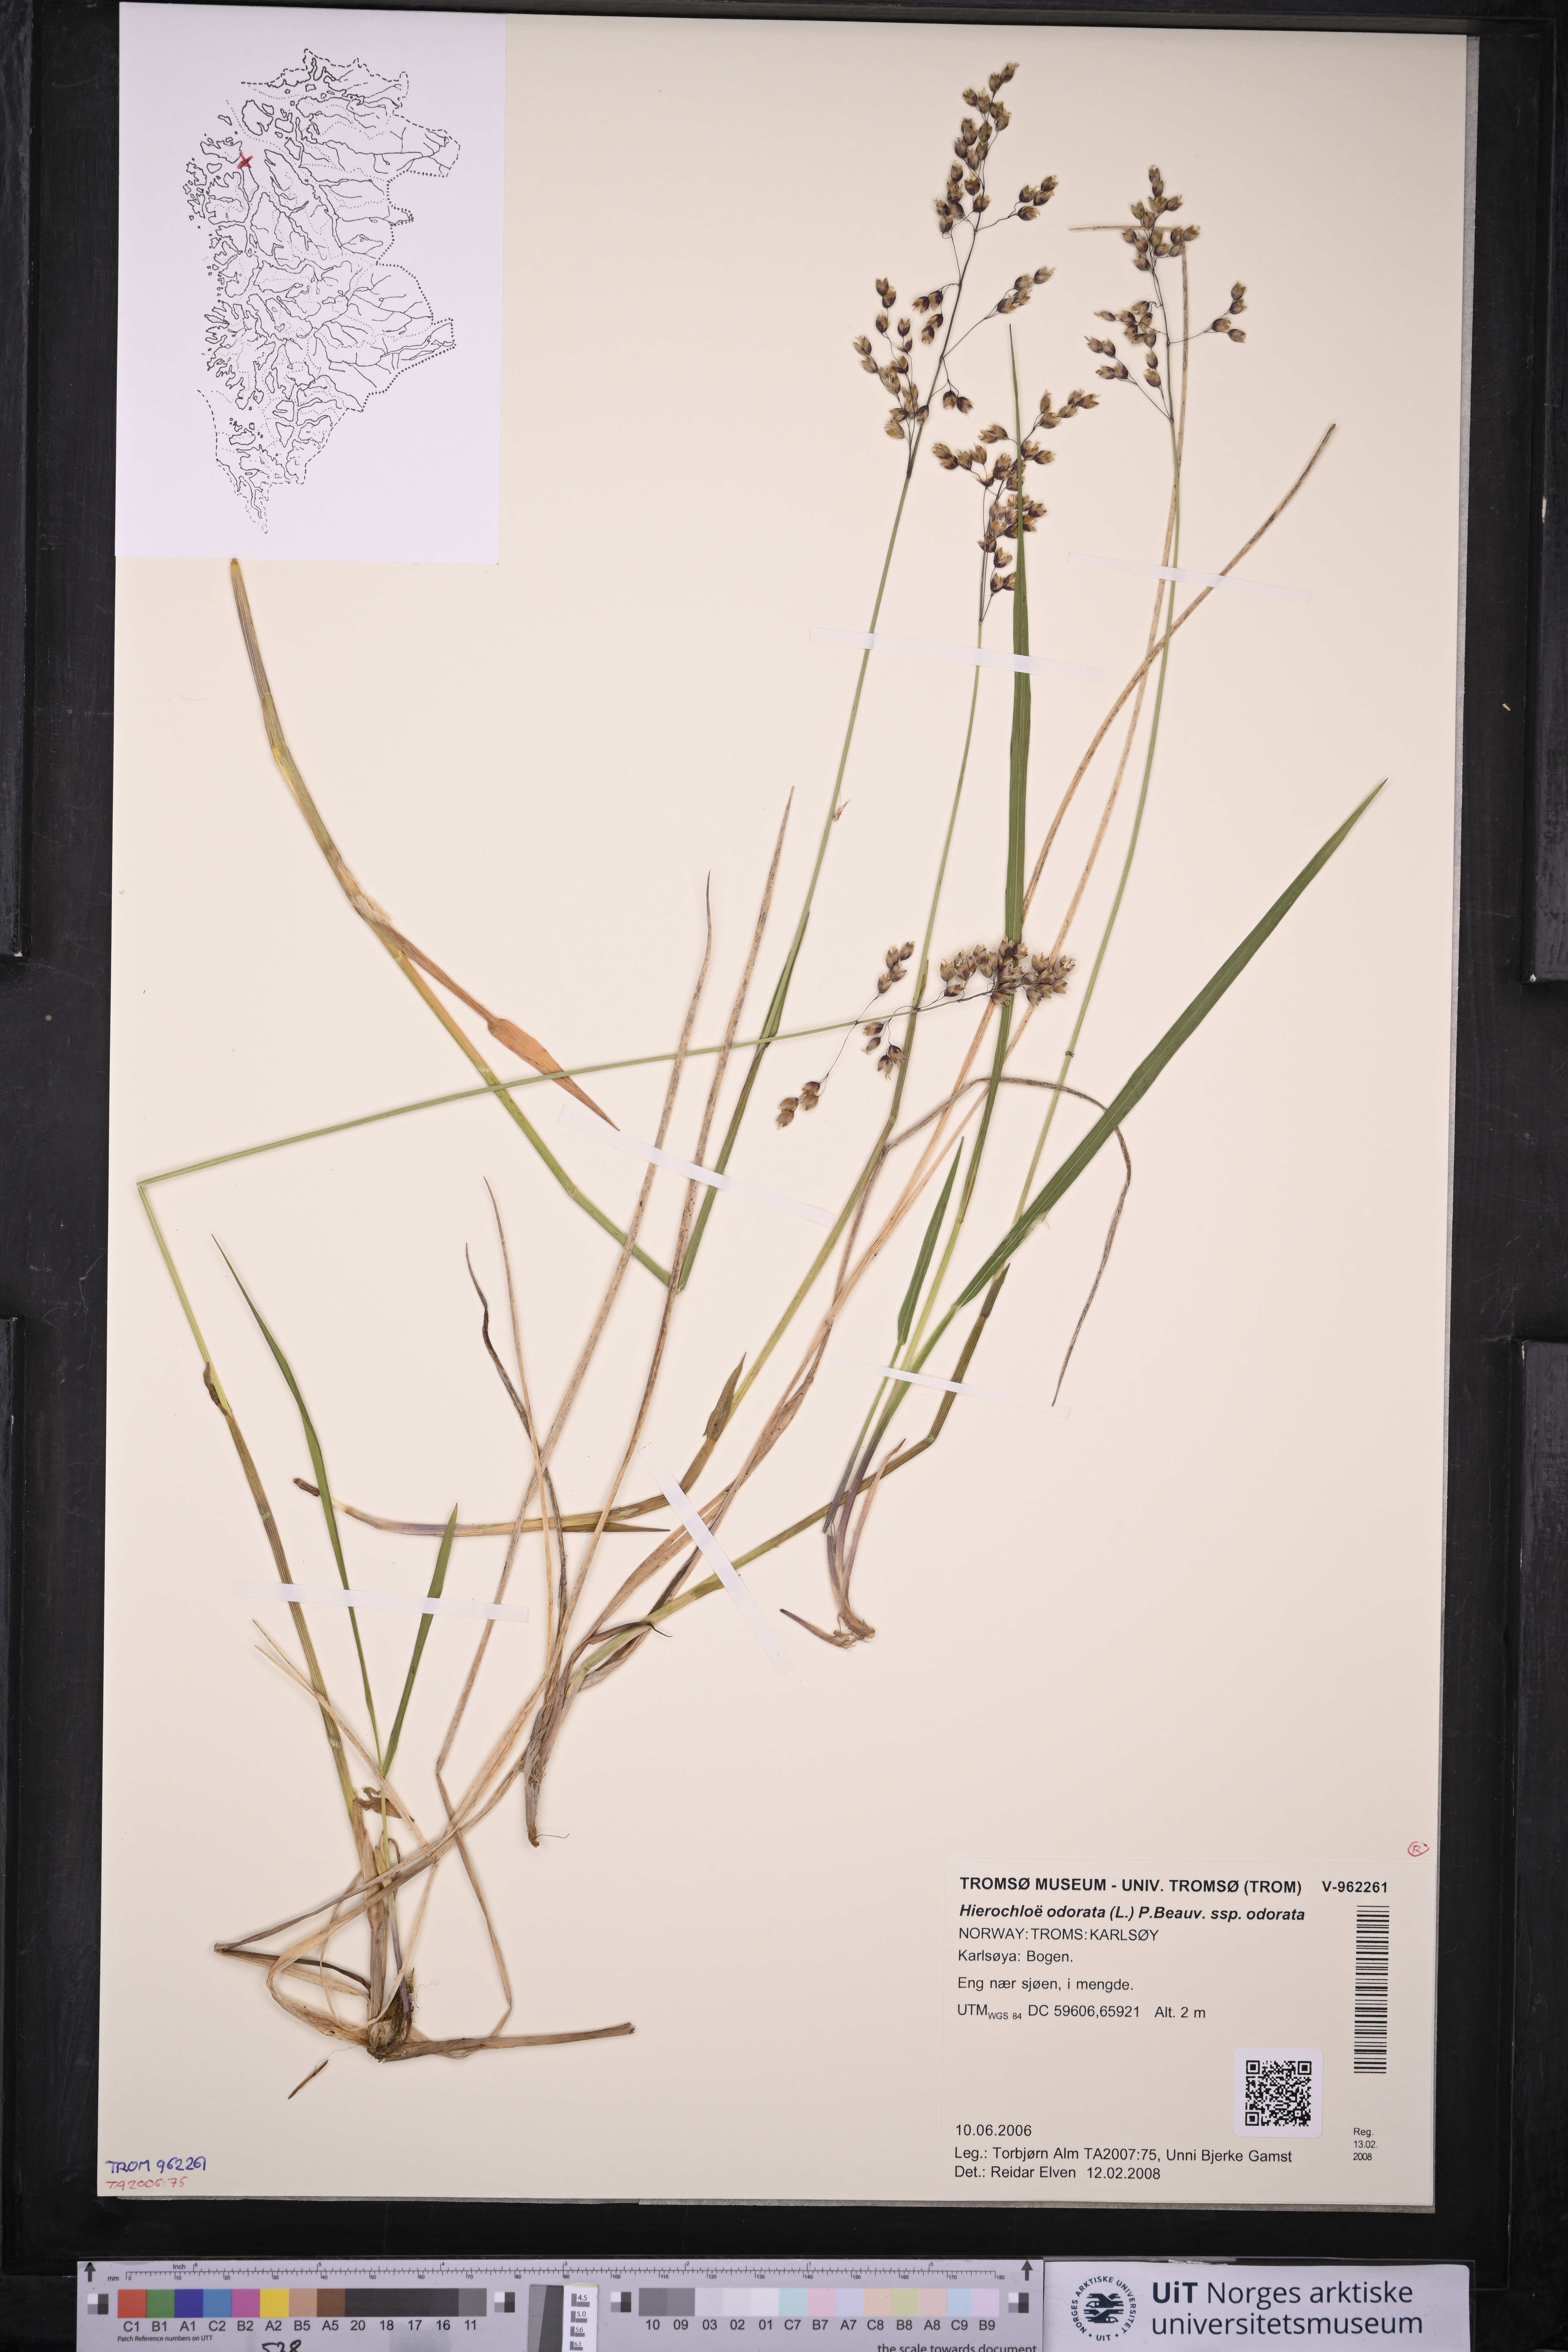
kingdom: Plantae
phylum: Tracheophyta
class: Liliopsida
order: Poales
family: Poaceae
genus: Anthoxanthum
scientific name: Anthoxanthum nitens
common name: Holy grass
